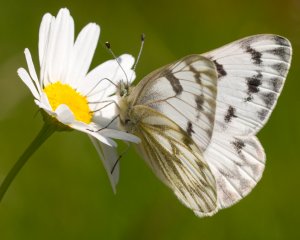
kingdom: Animalia
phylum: Arthropoda
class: Insecta
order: Lepidoptera
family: Pieridae
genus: Pontia
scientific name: Pontia occidentalis
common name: Western White
